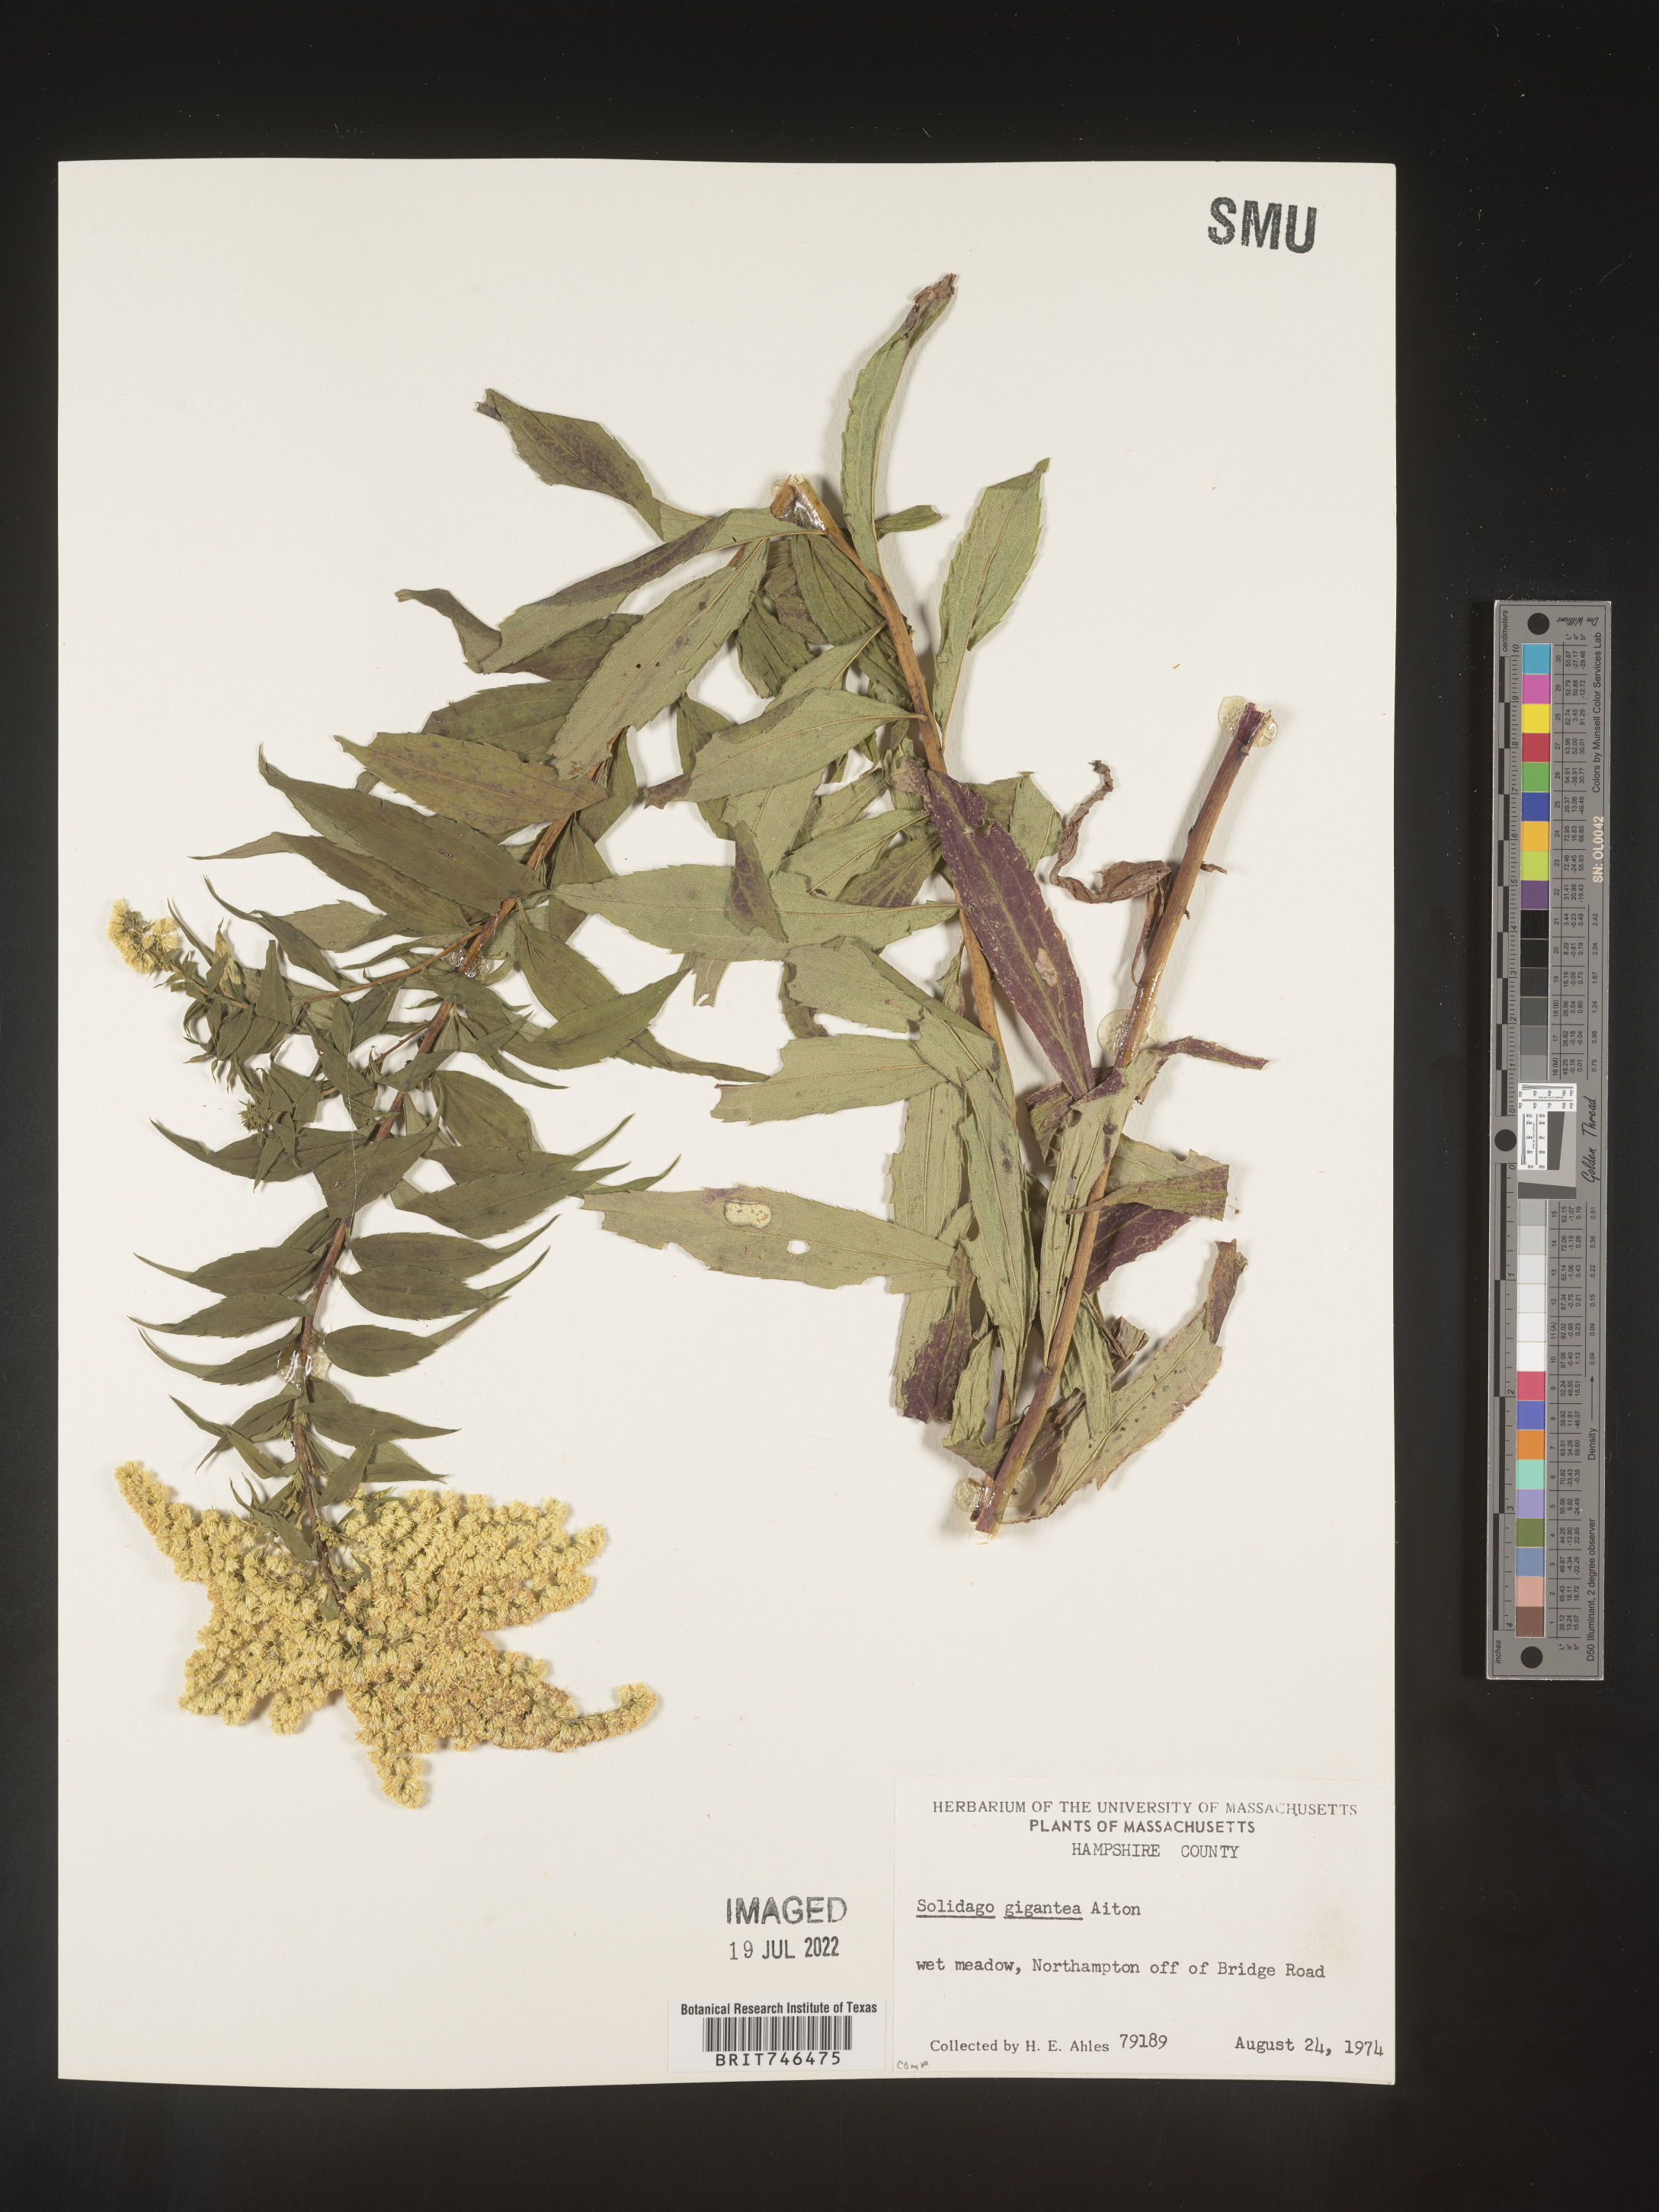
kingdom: Plantae
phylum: Tracheophyta
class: Magnoliopsida
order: Asterales
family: Asteraceae
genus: Solidago
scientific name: Solidago gigantea
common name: Giant goldenrod
